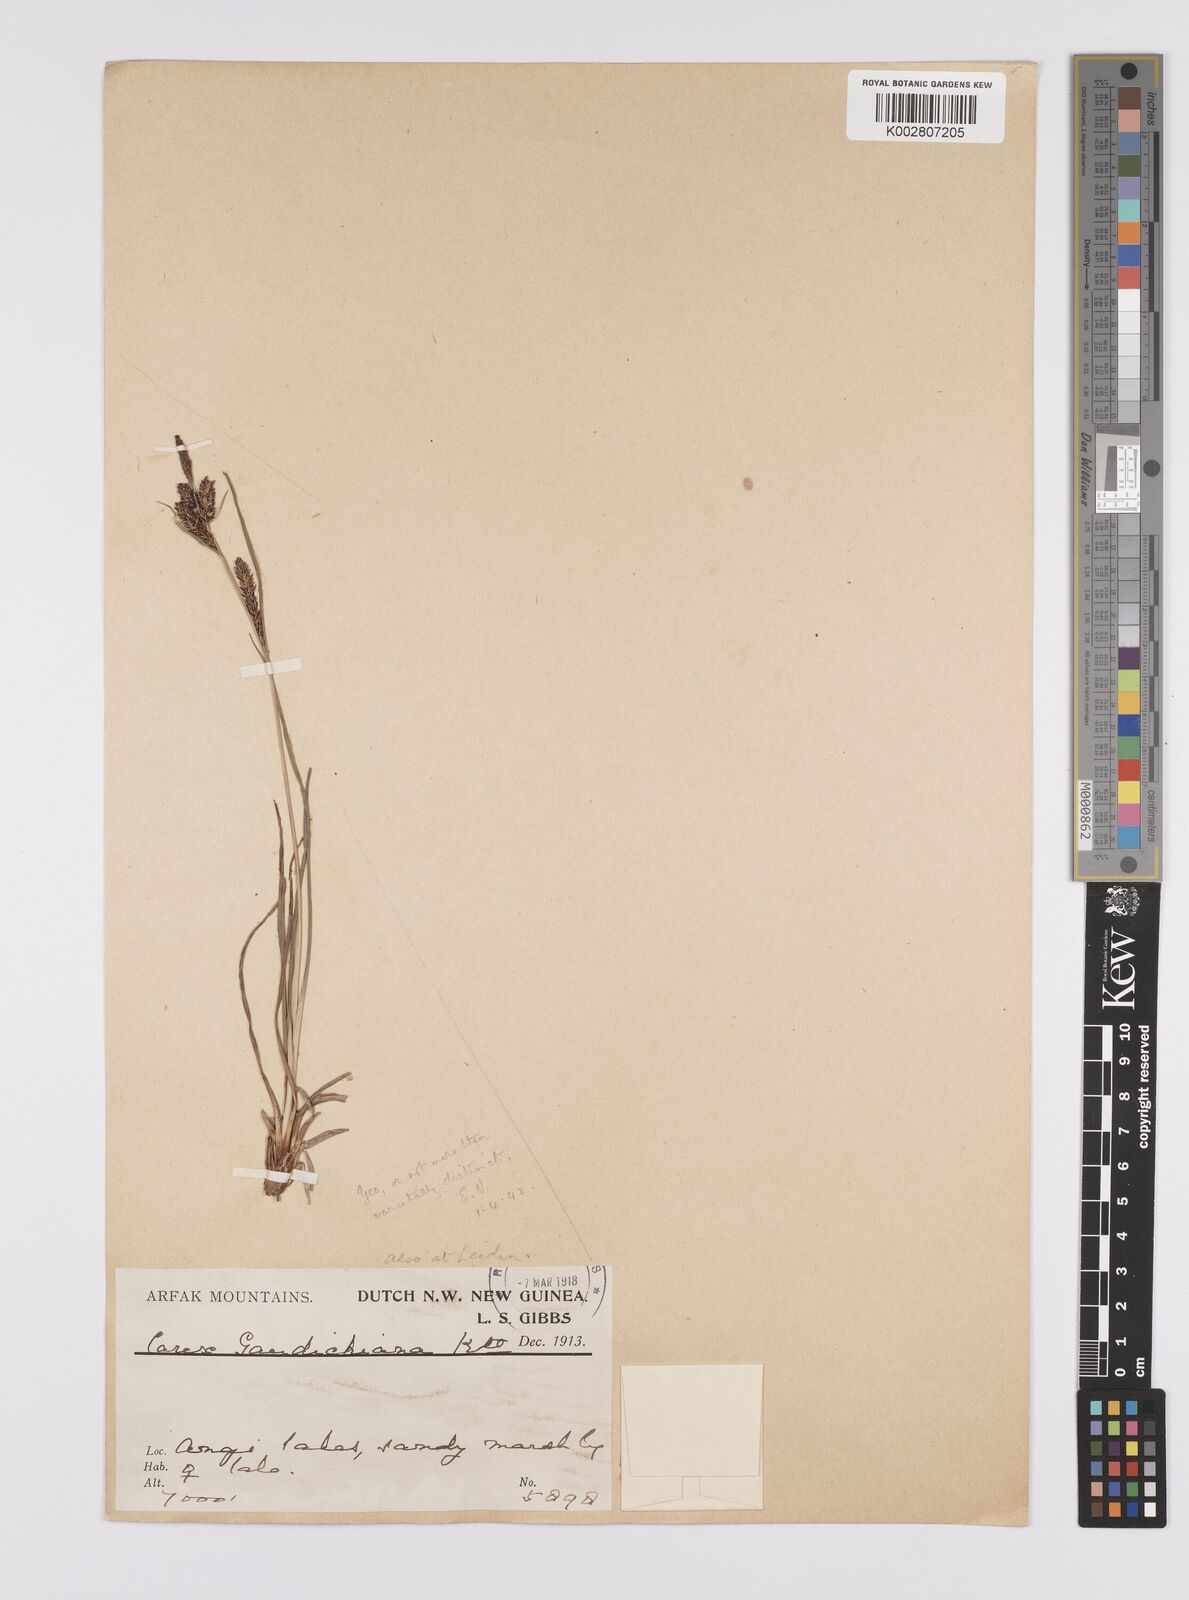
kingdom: Plantae
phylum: Tracheophyta
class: Liliopsida
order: Poales
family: Cyperaceae
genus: Carex
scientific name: Carex gaudichaudiana
